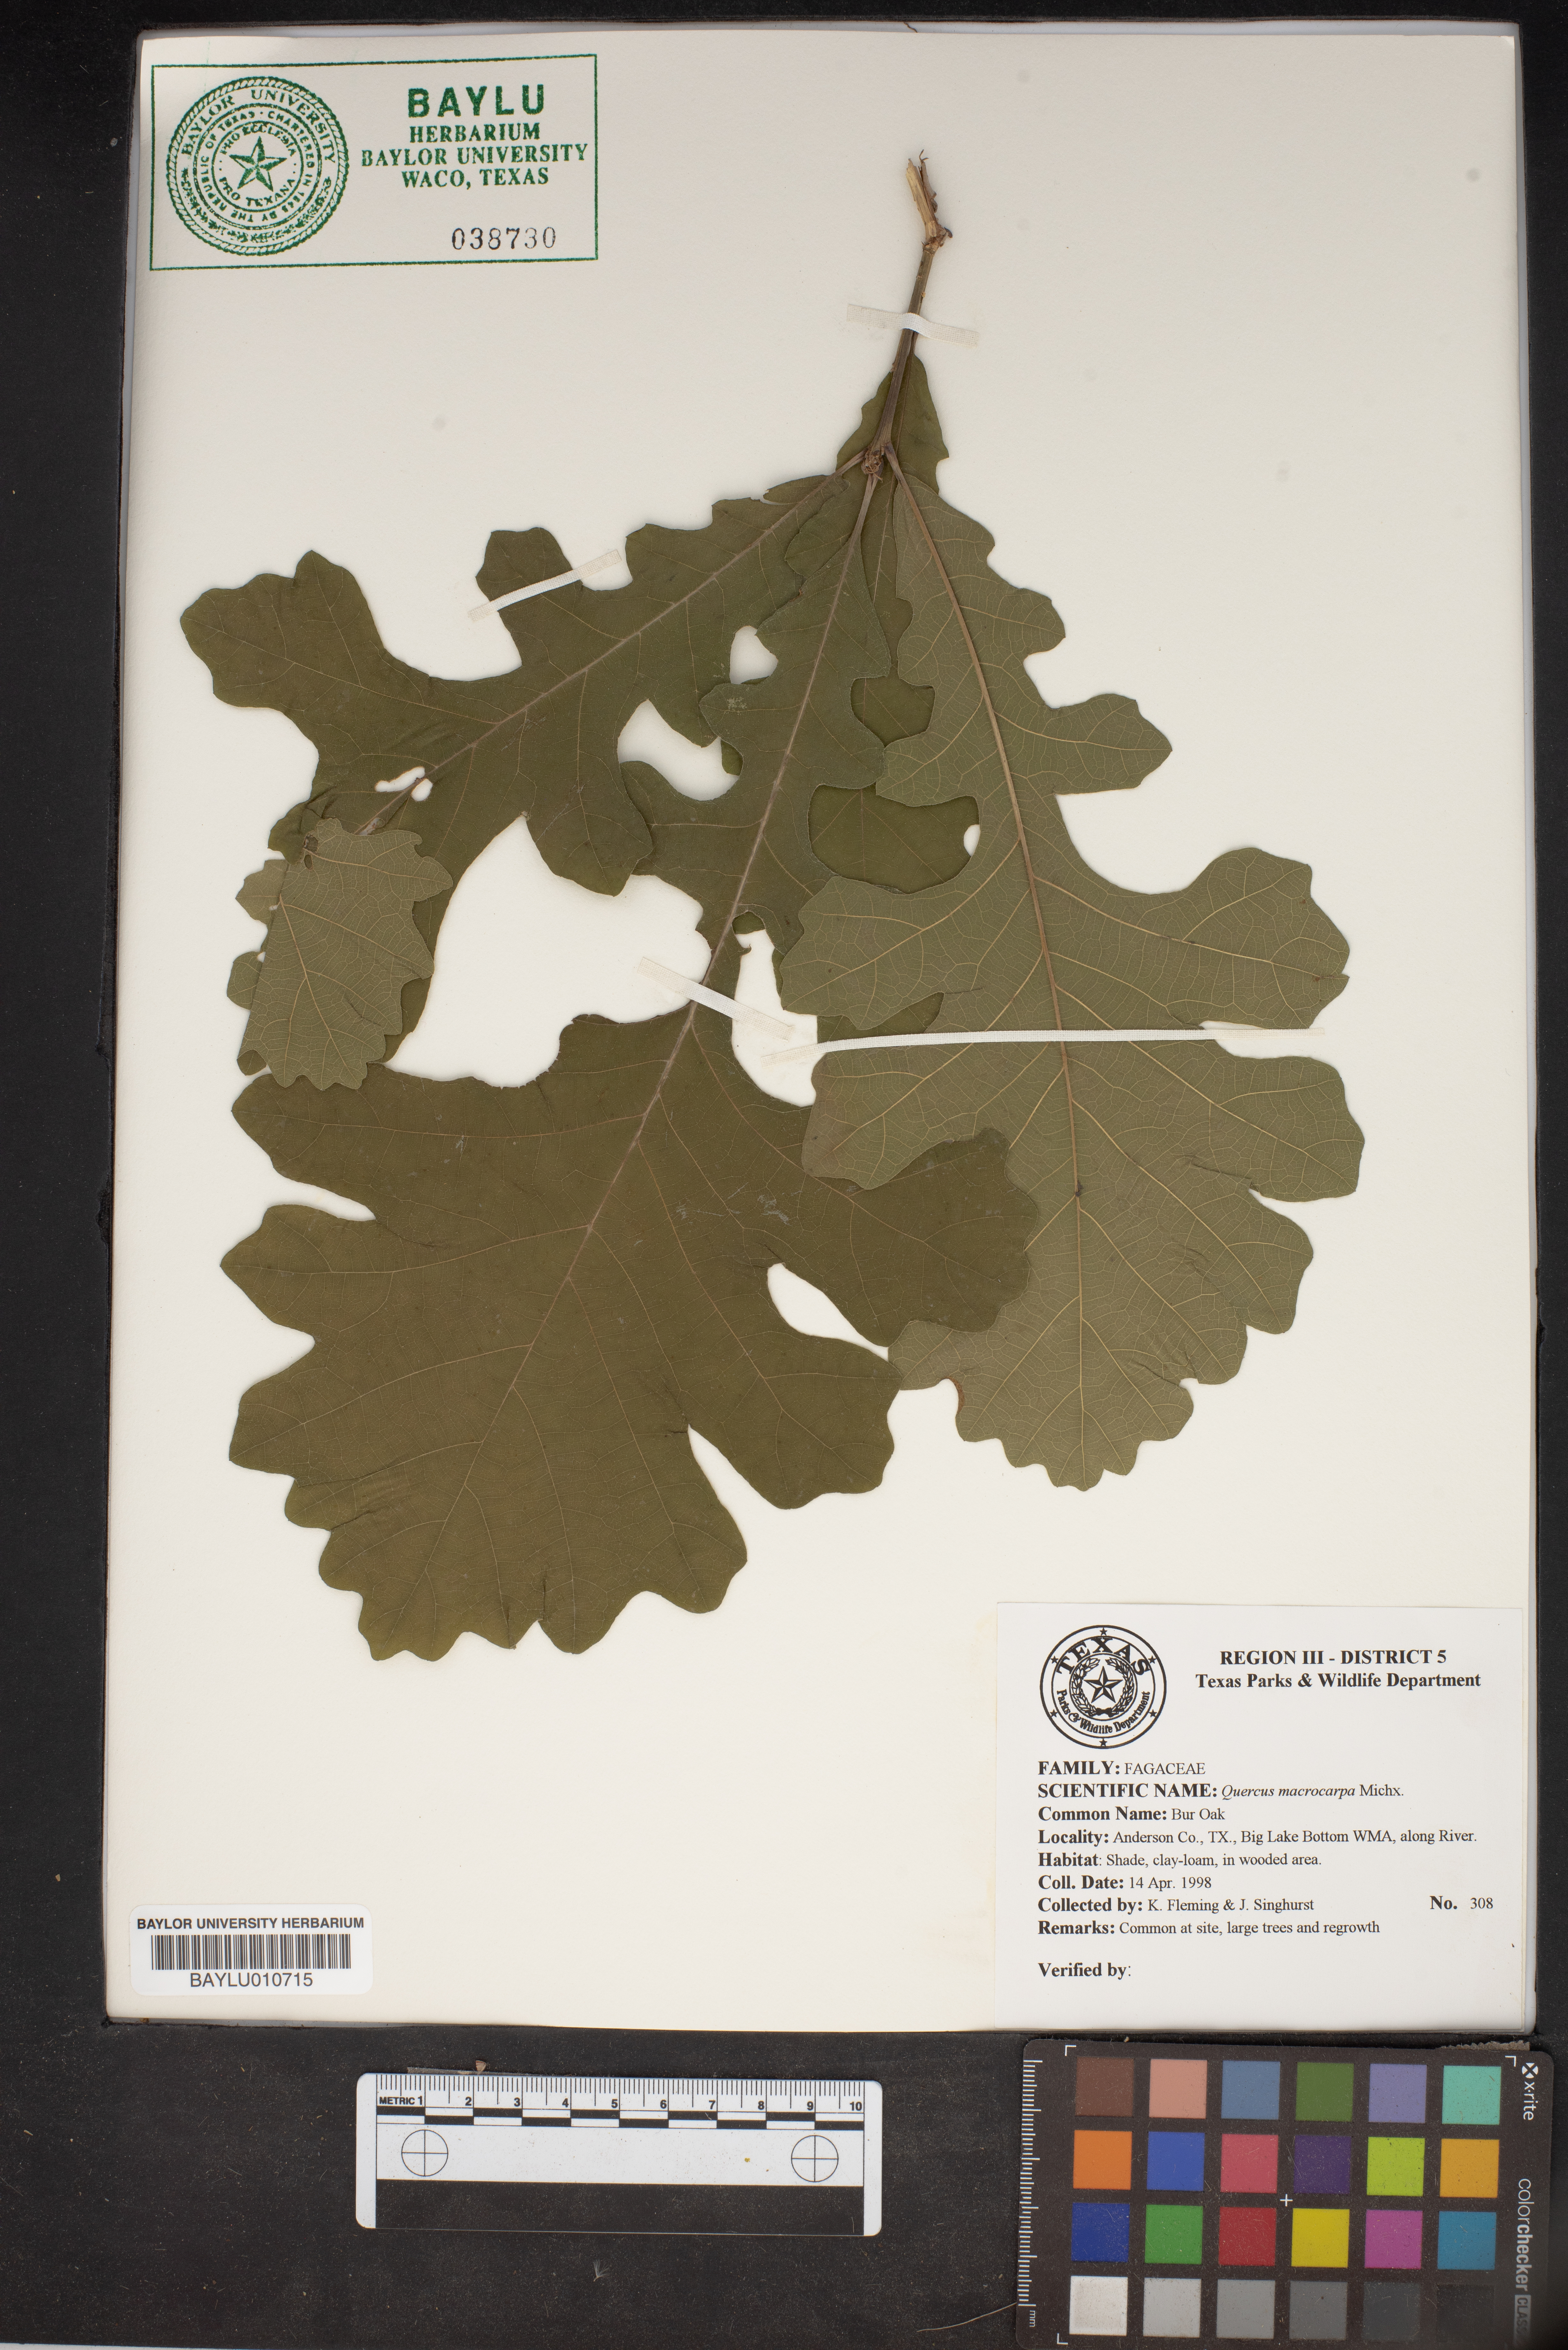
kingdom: Plantae
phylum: Tracheophyta
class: Magnoliopsida
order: Fagales
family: Fagaceae
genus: Quercus
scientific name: Quercus macrocarpa
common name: Bur oak
